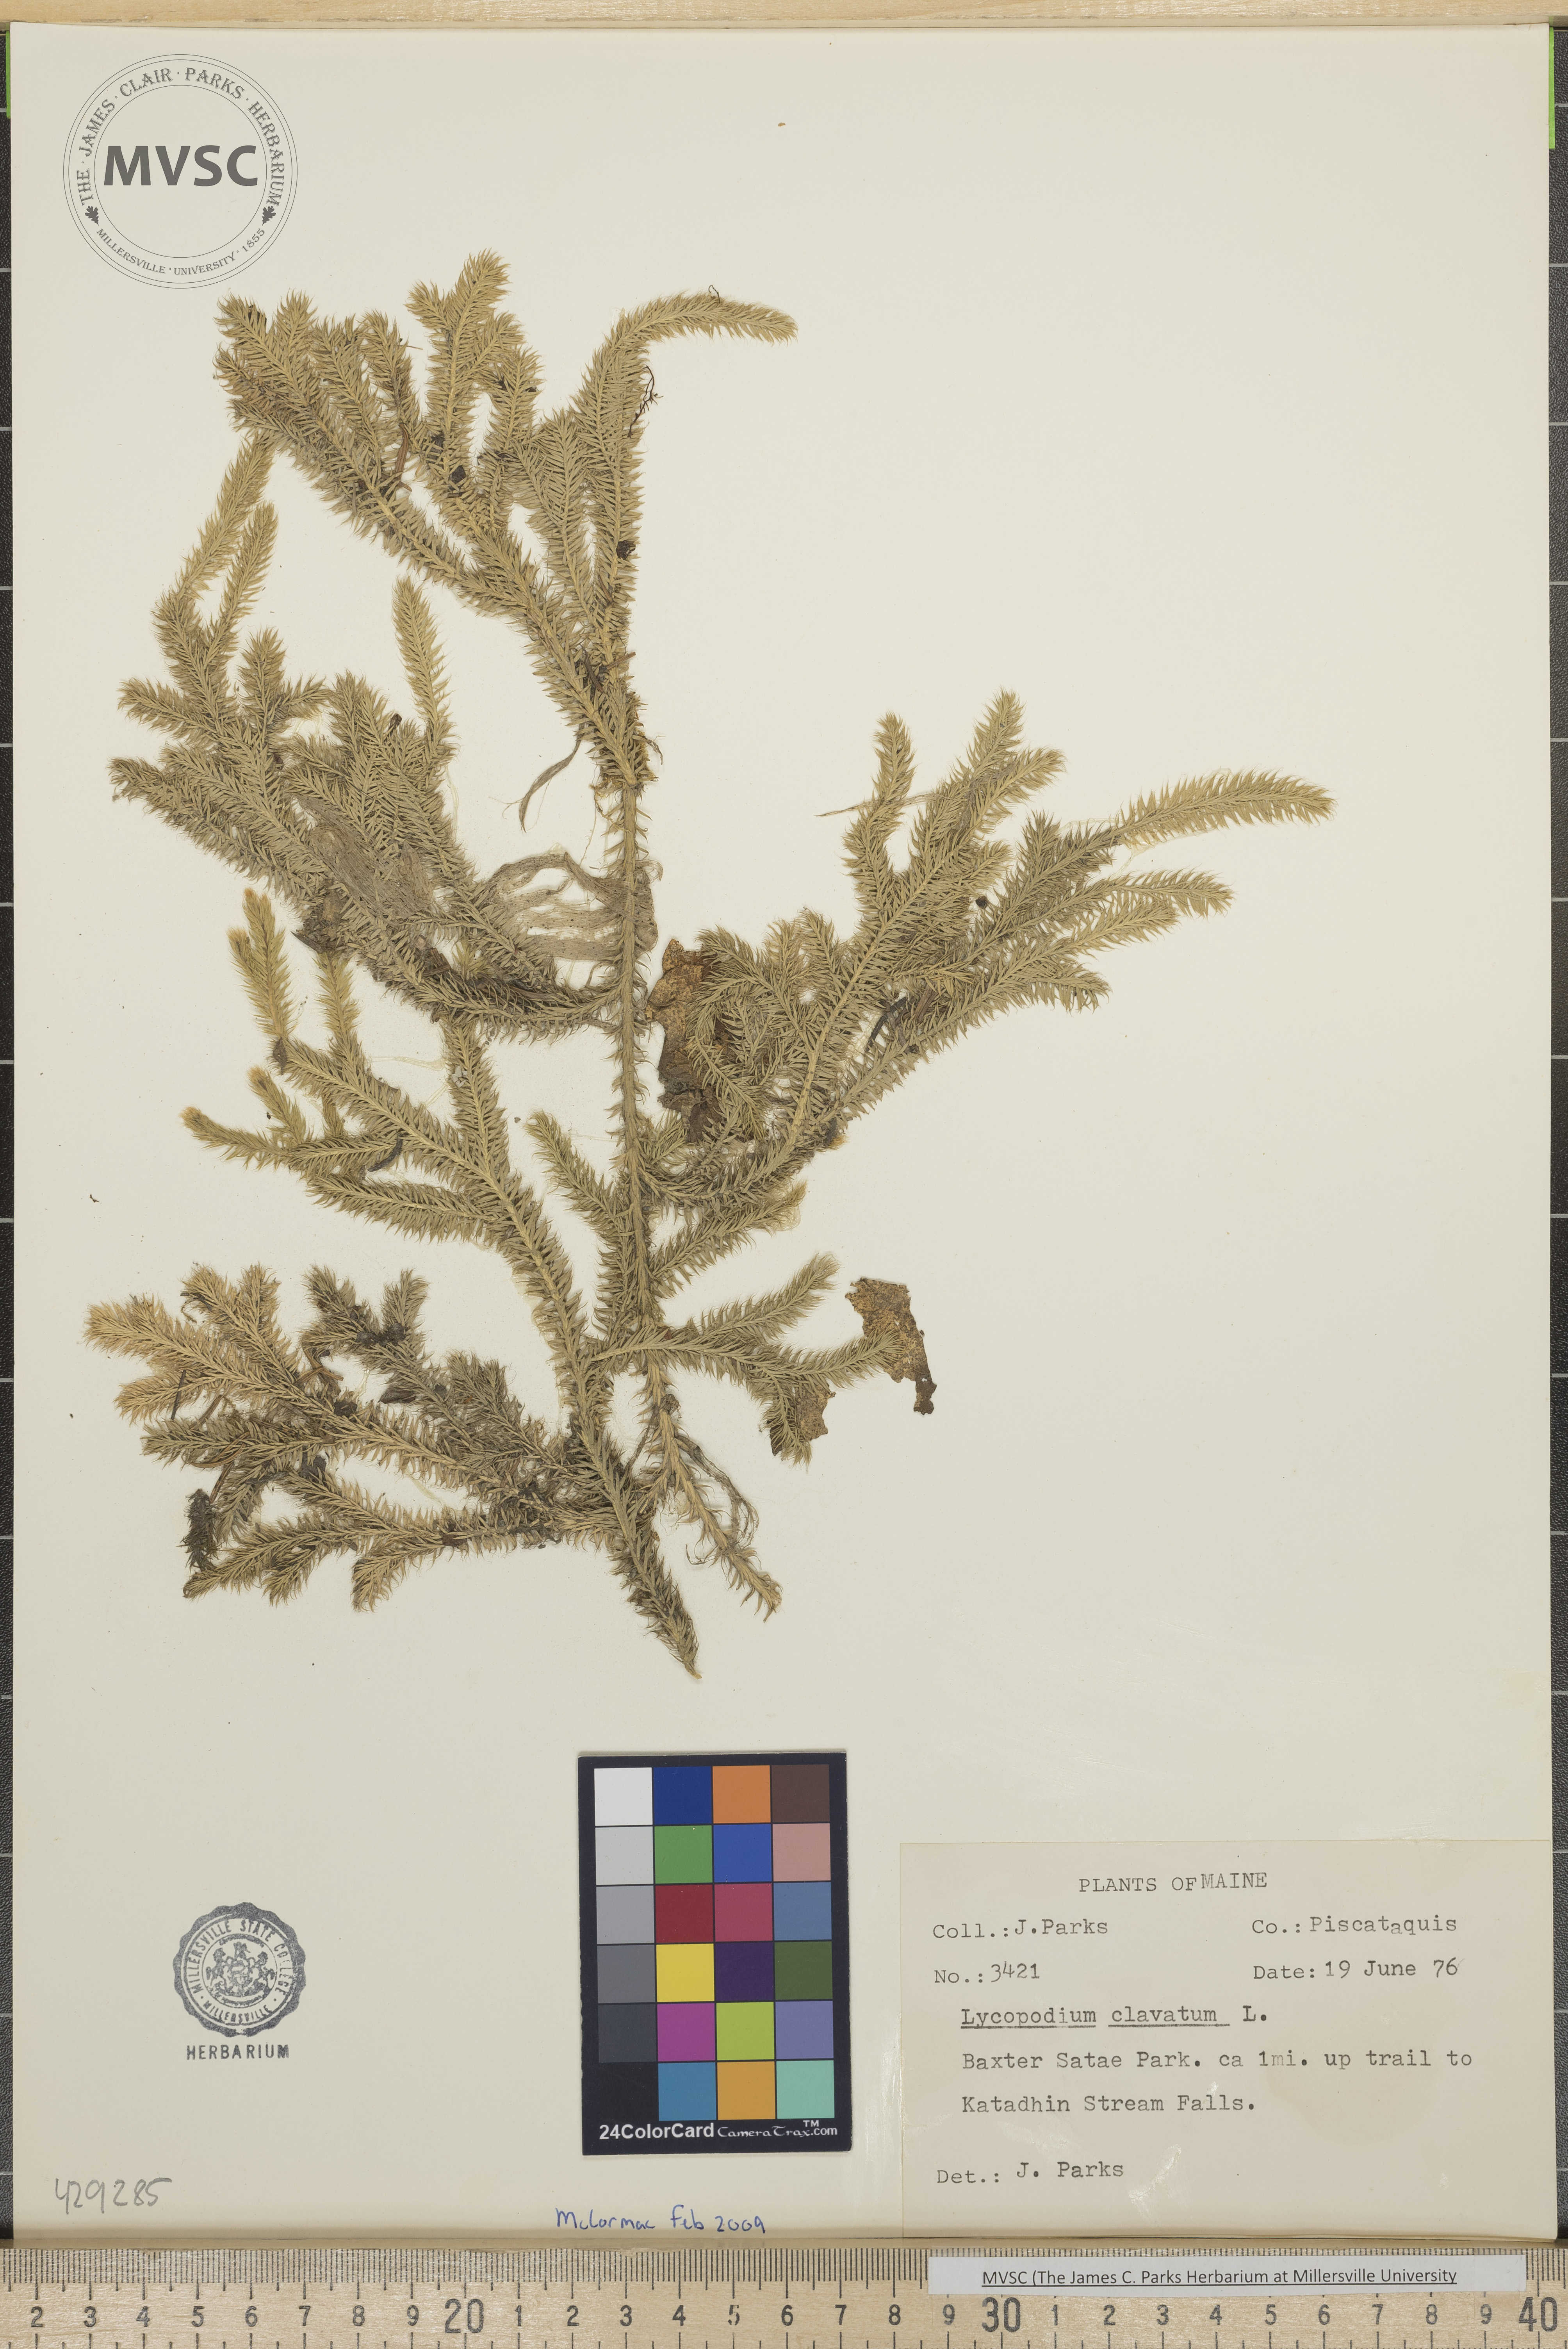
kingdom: Plantae
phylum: Tracheophyta
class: Lycopodiopsida
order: Lycopodiales
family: Lycopodiaceae
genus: Lycopodium
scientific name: Lycopodium clavatum
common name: Stag's-horn clubmoss
